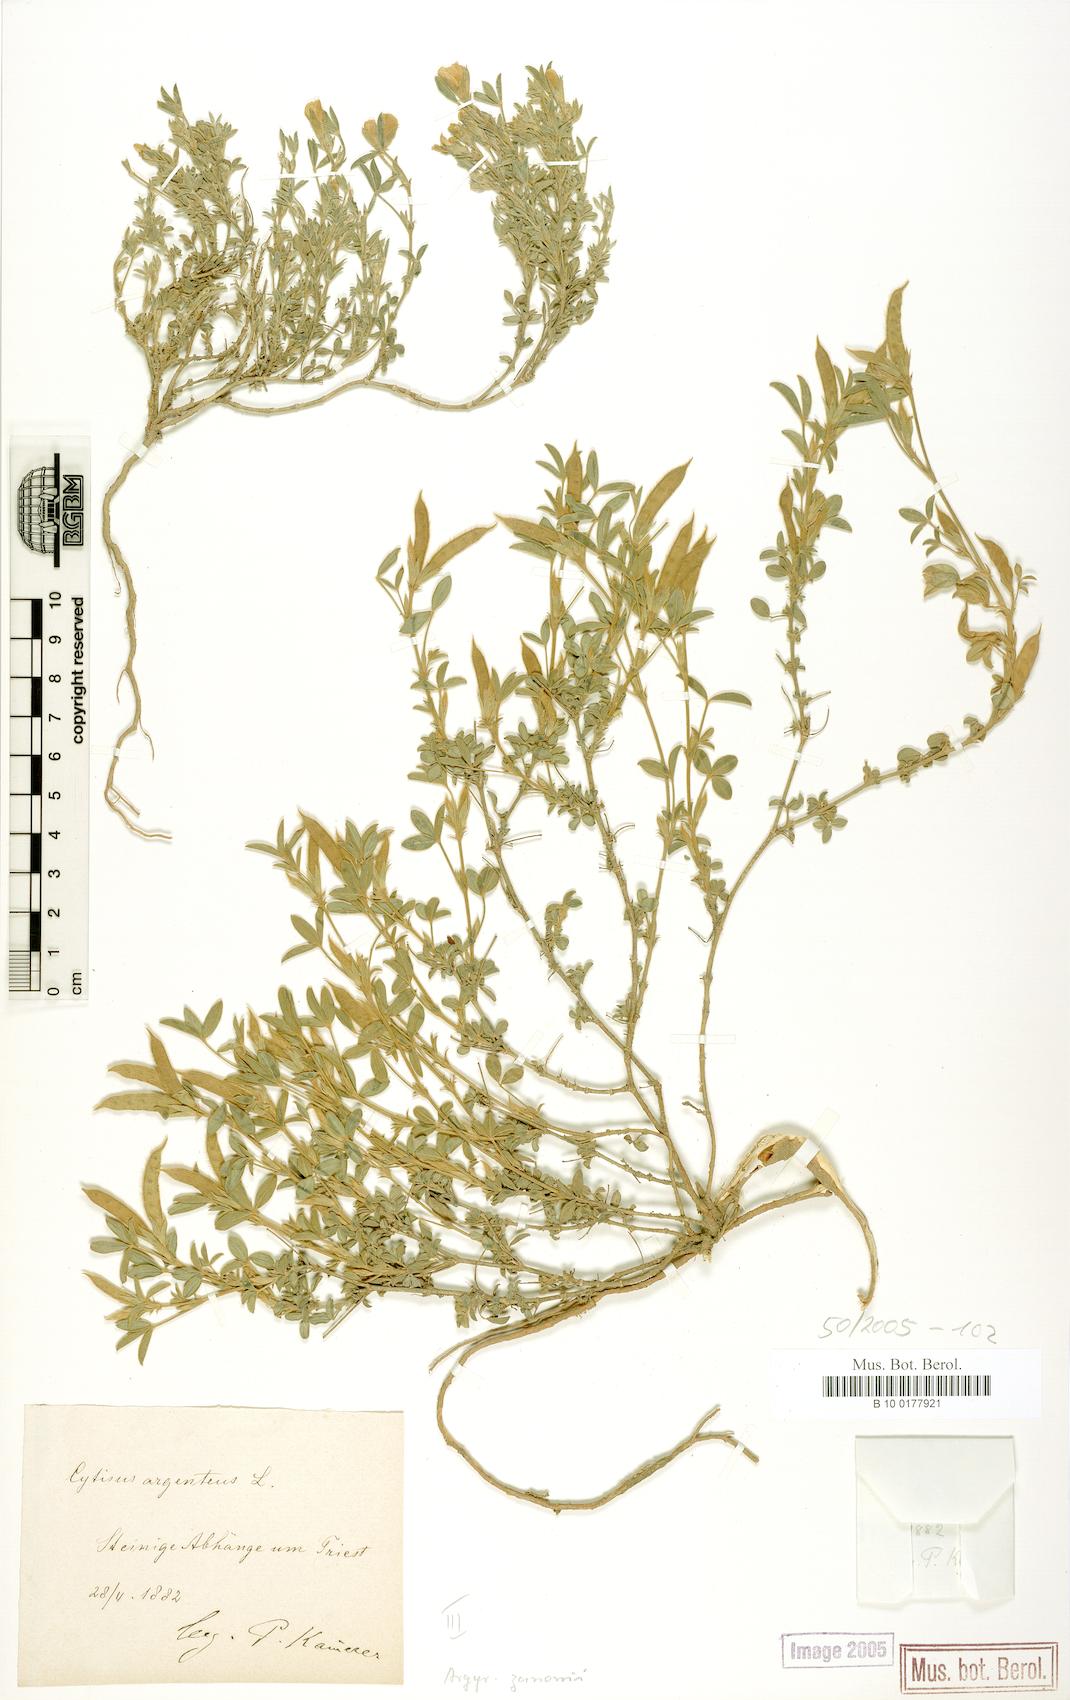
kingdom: Plantae
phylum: Tracheophyta
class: Magnoliopsida
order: Fabales
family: Fabaceae
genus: Argyrolobium
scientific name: Argyrolobium zanonii
